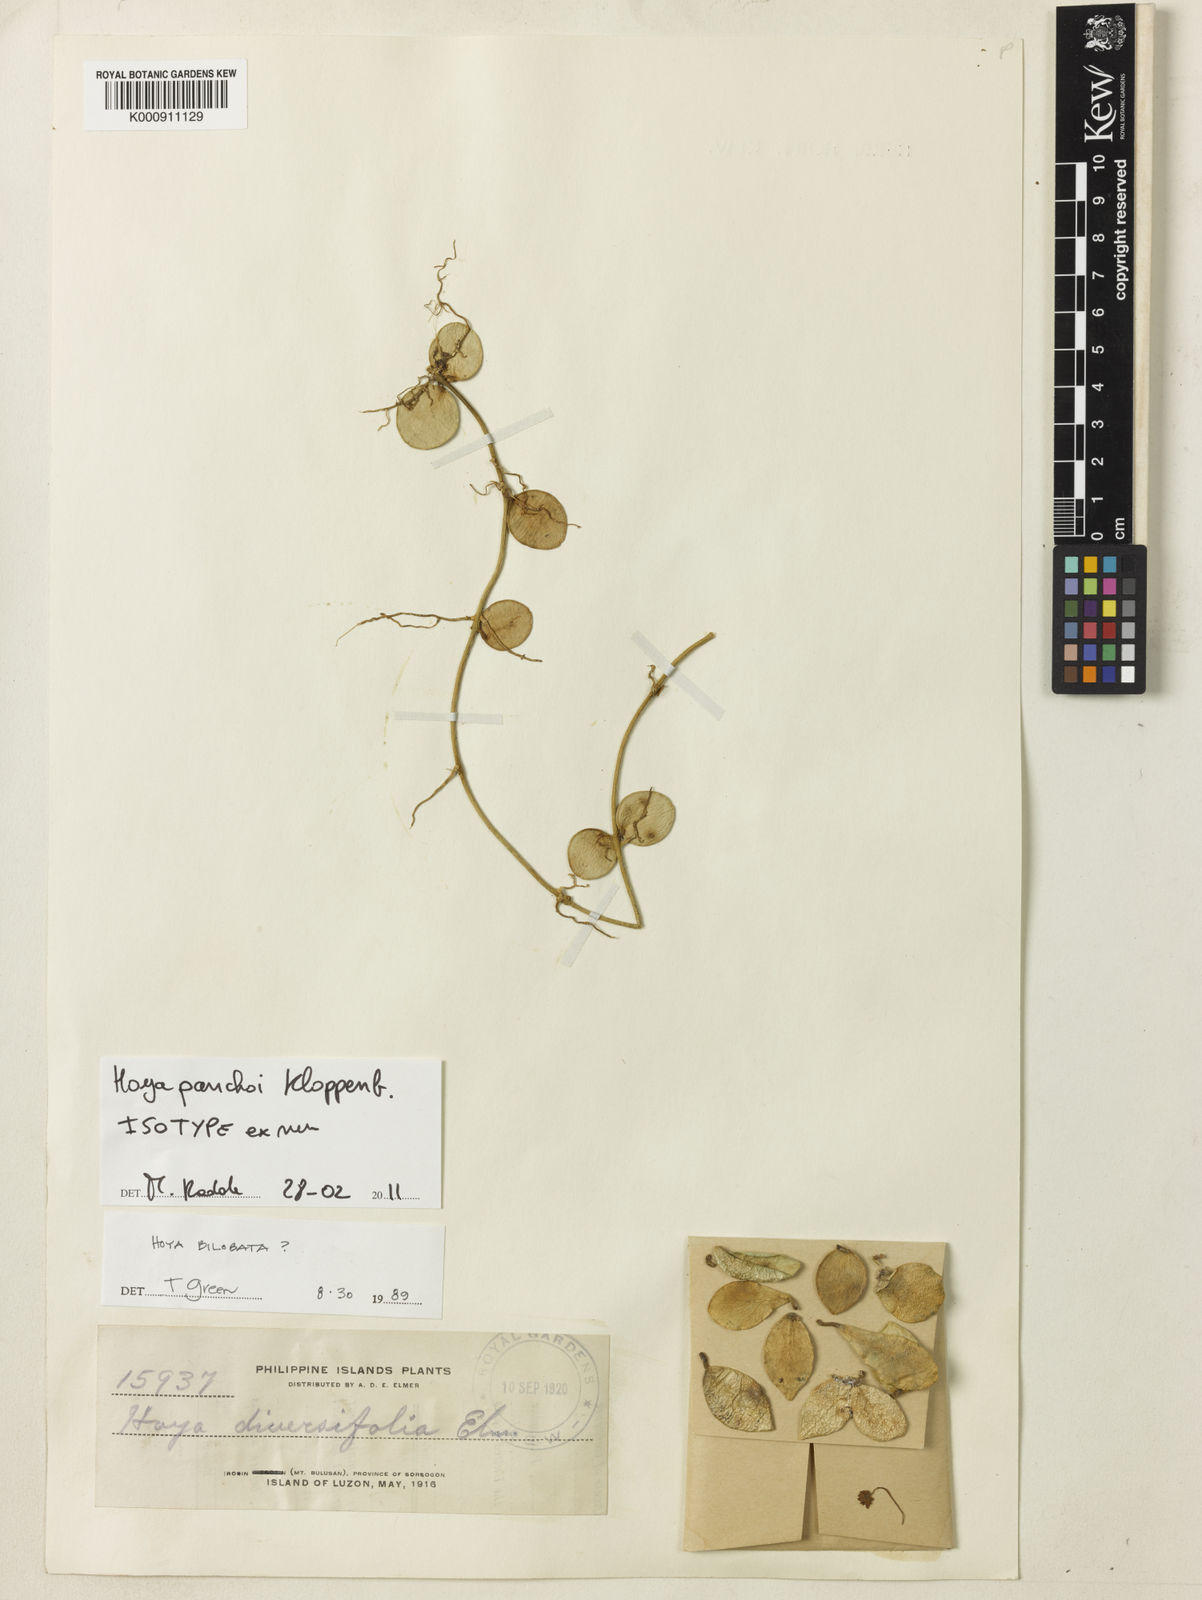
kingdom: Plantae
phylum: Tracheophyta
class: Magnoliopsida
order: Gentianales
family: Apocynaceae
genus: Hoya
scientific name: Hoya diversifolia
